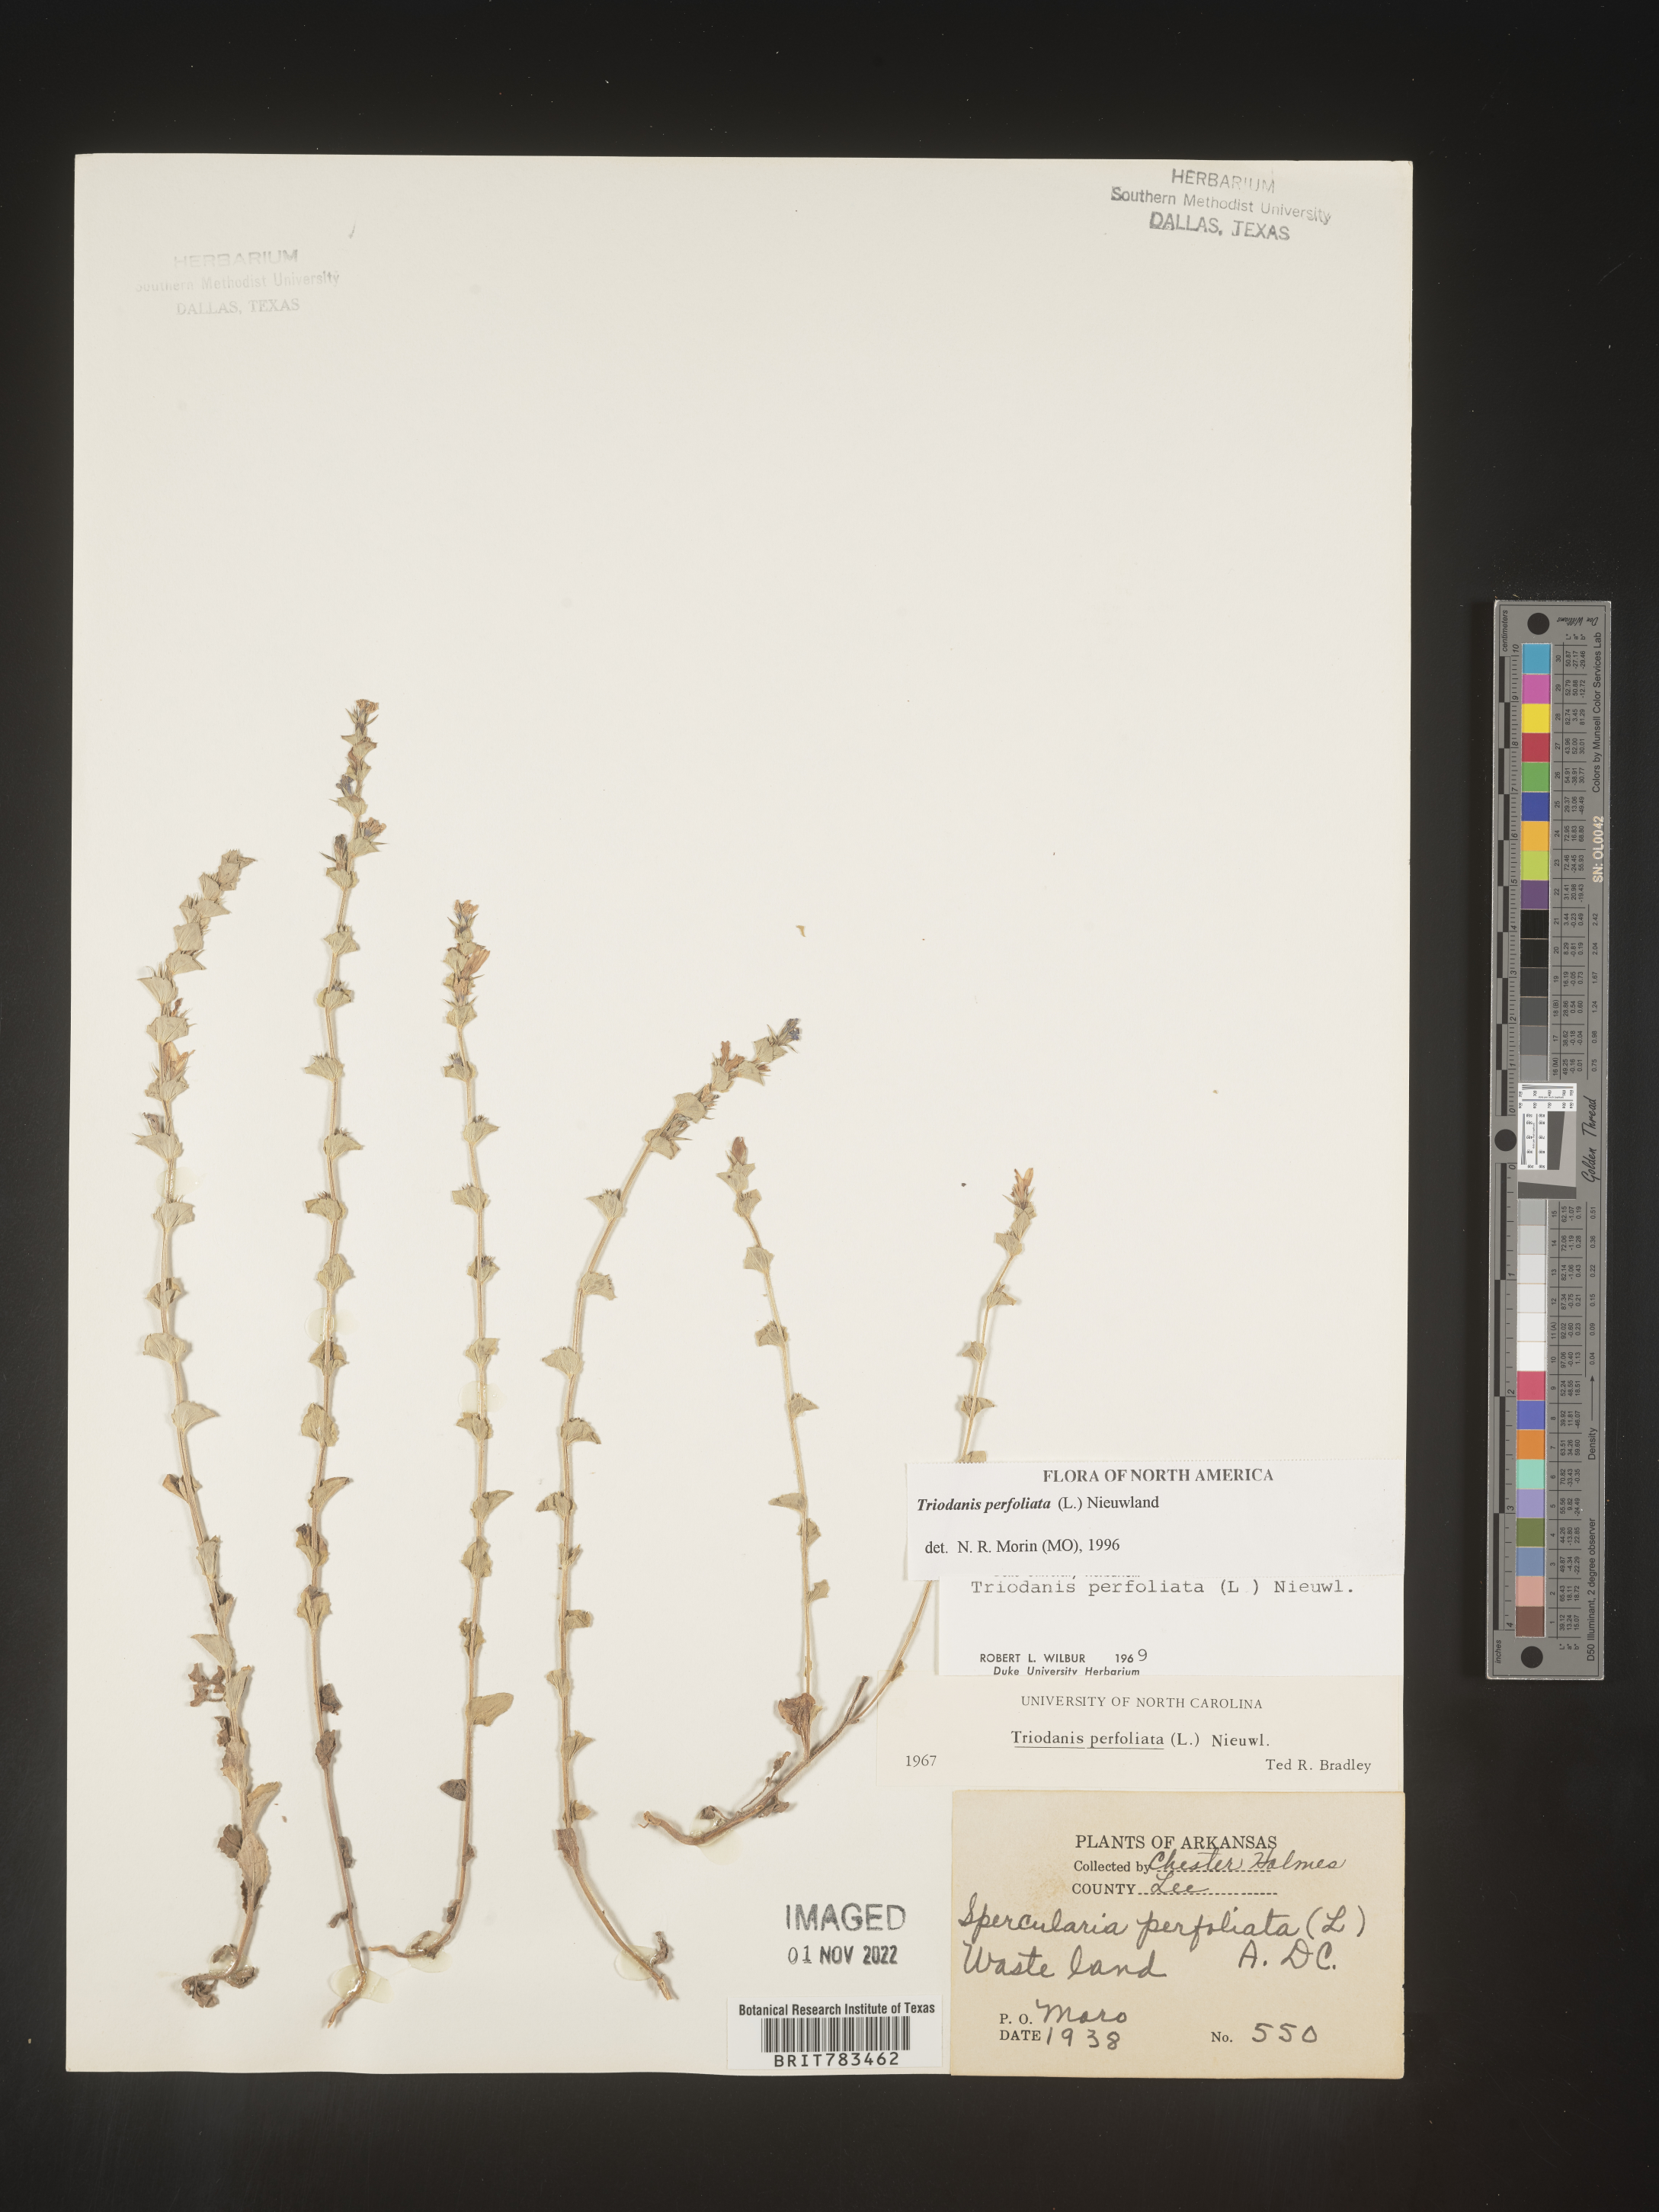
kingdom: Plantae
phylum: Tracheophyta
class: Magnoliopsida
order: Asterales
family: Campanulaceae
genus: Triodanis
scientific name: Triodanis perfoliata
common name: Clasping venus' looking-glass
